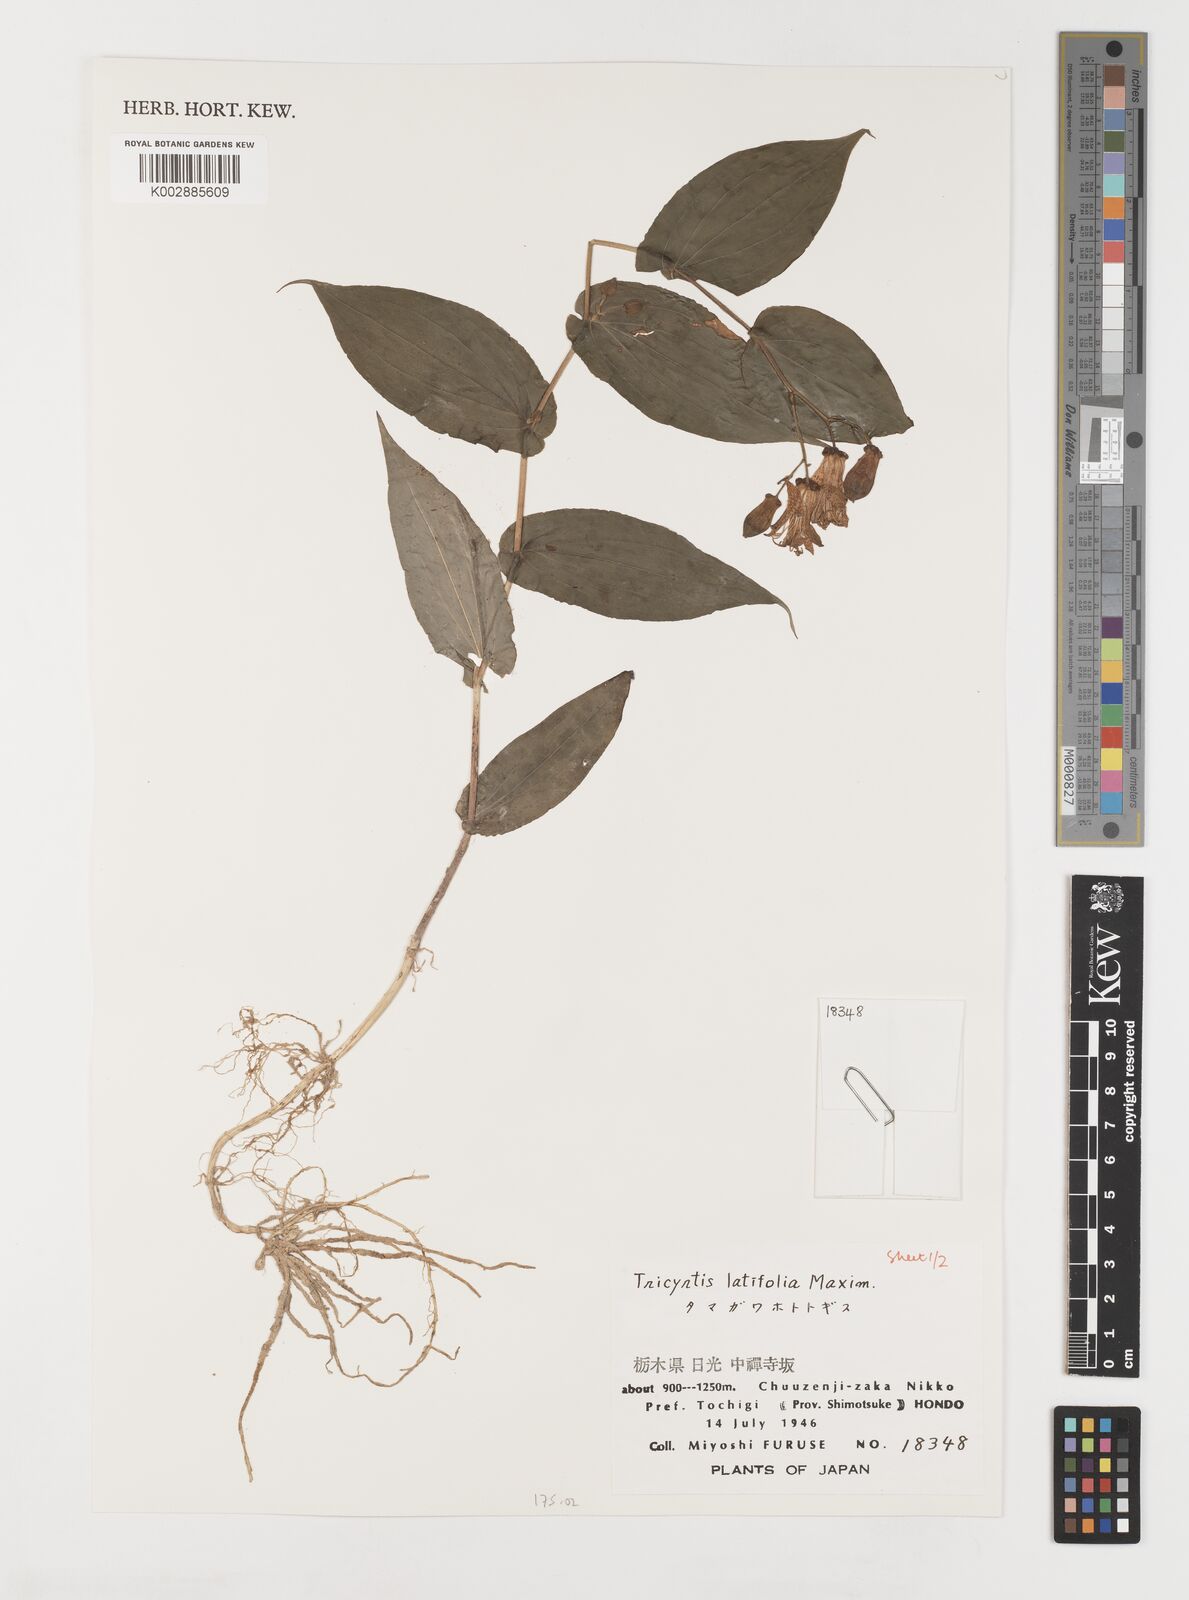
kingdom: Plantae
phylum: Tracheophyta
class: Liliopsida
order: Liliales
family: Liliaceae
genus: Tricyrtis
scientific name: Tricyrtis latifolia
